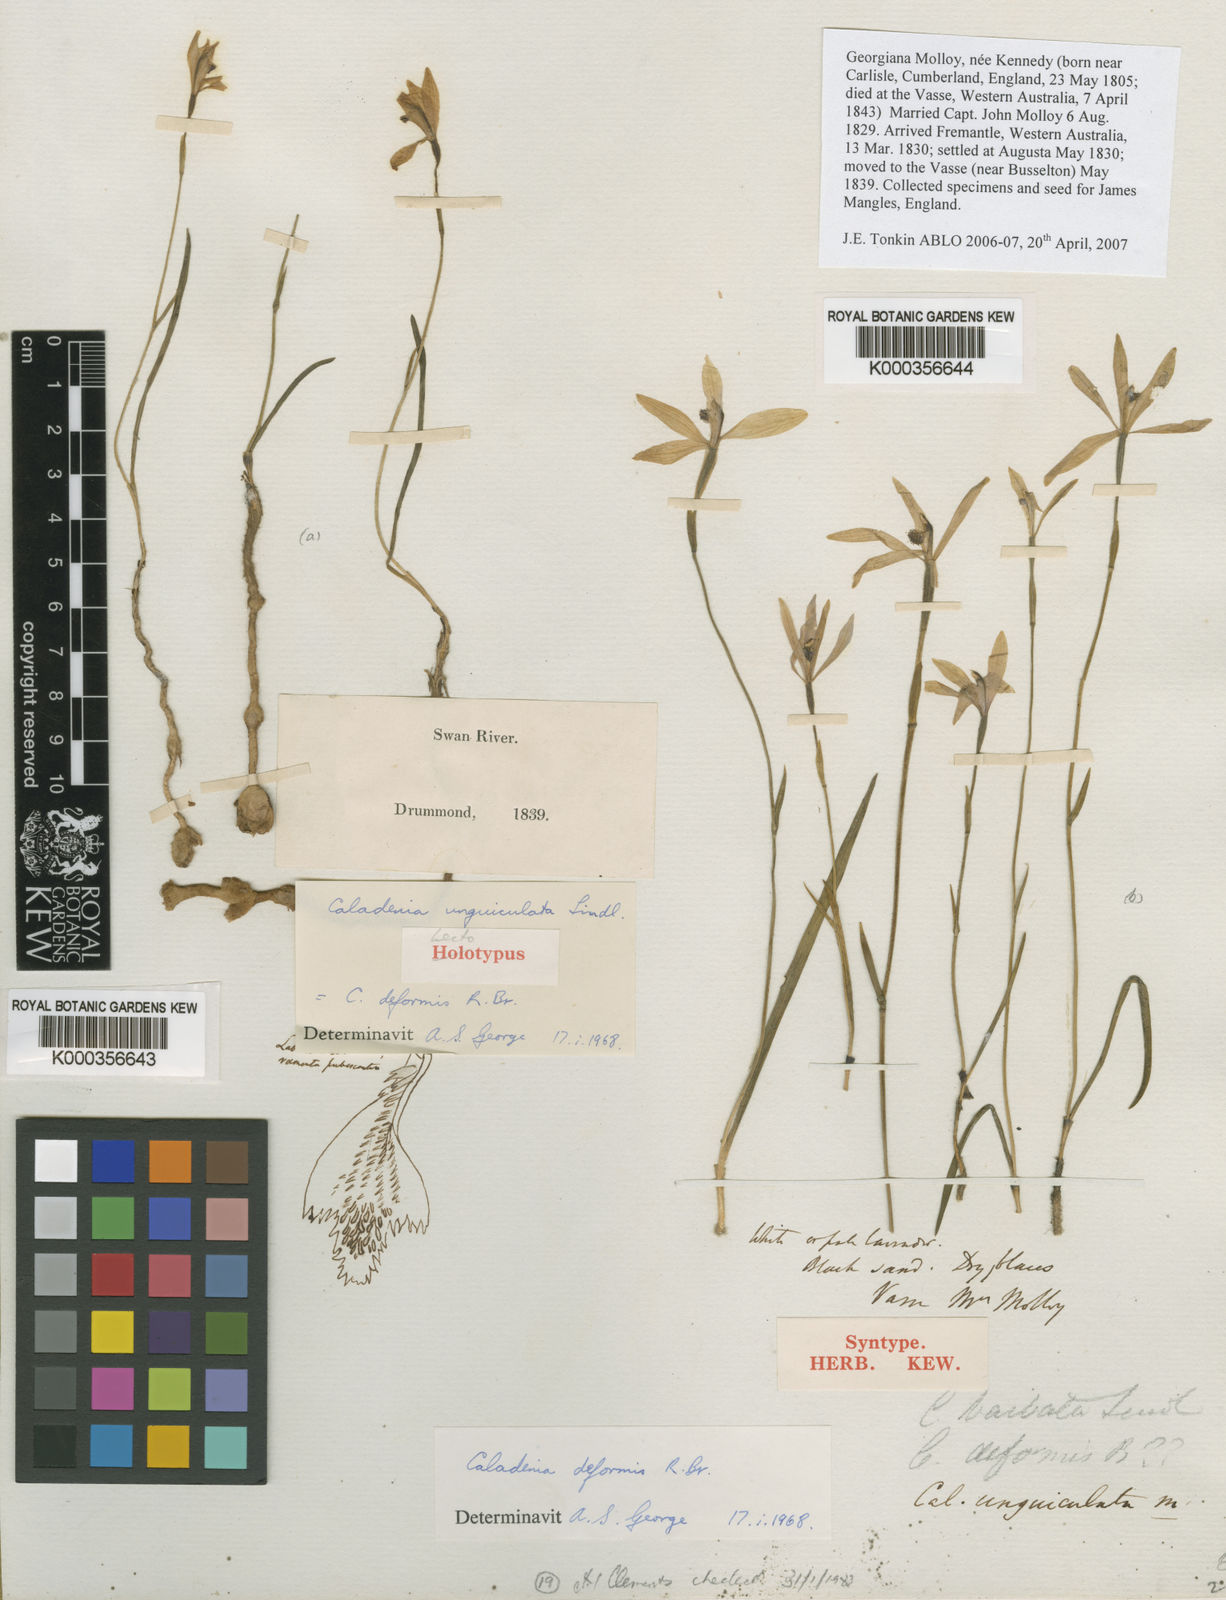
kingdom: Plantae
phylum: Tracheophyta
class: Liliopsida
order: Asparagales
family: Orchidaceae
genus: Pheladenia
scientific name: Pheladenia deformis
